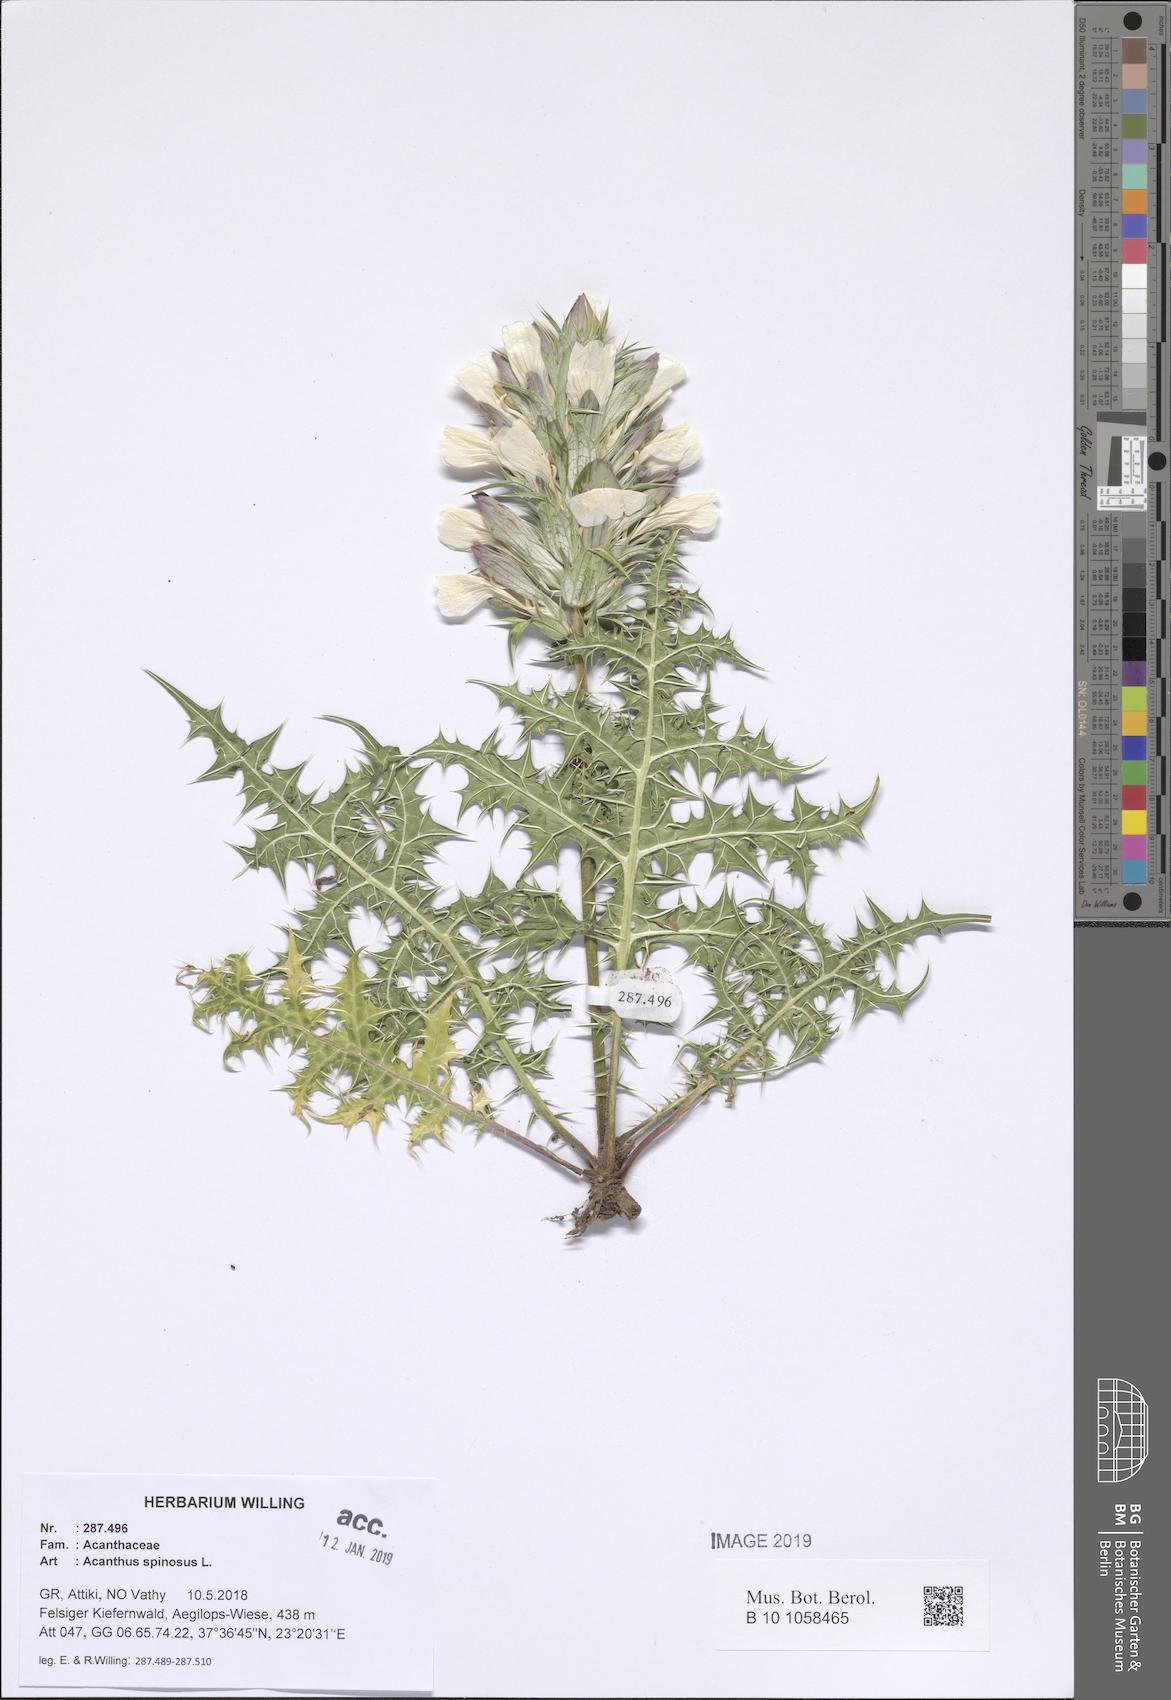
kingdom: Plantae
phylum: Tracheophyta
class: Magnoliopsida
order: Lamiales
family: Acanthaceae
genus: Acanthus
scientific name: Acanthus spinosus
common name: Spiny bear's-breech
